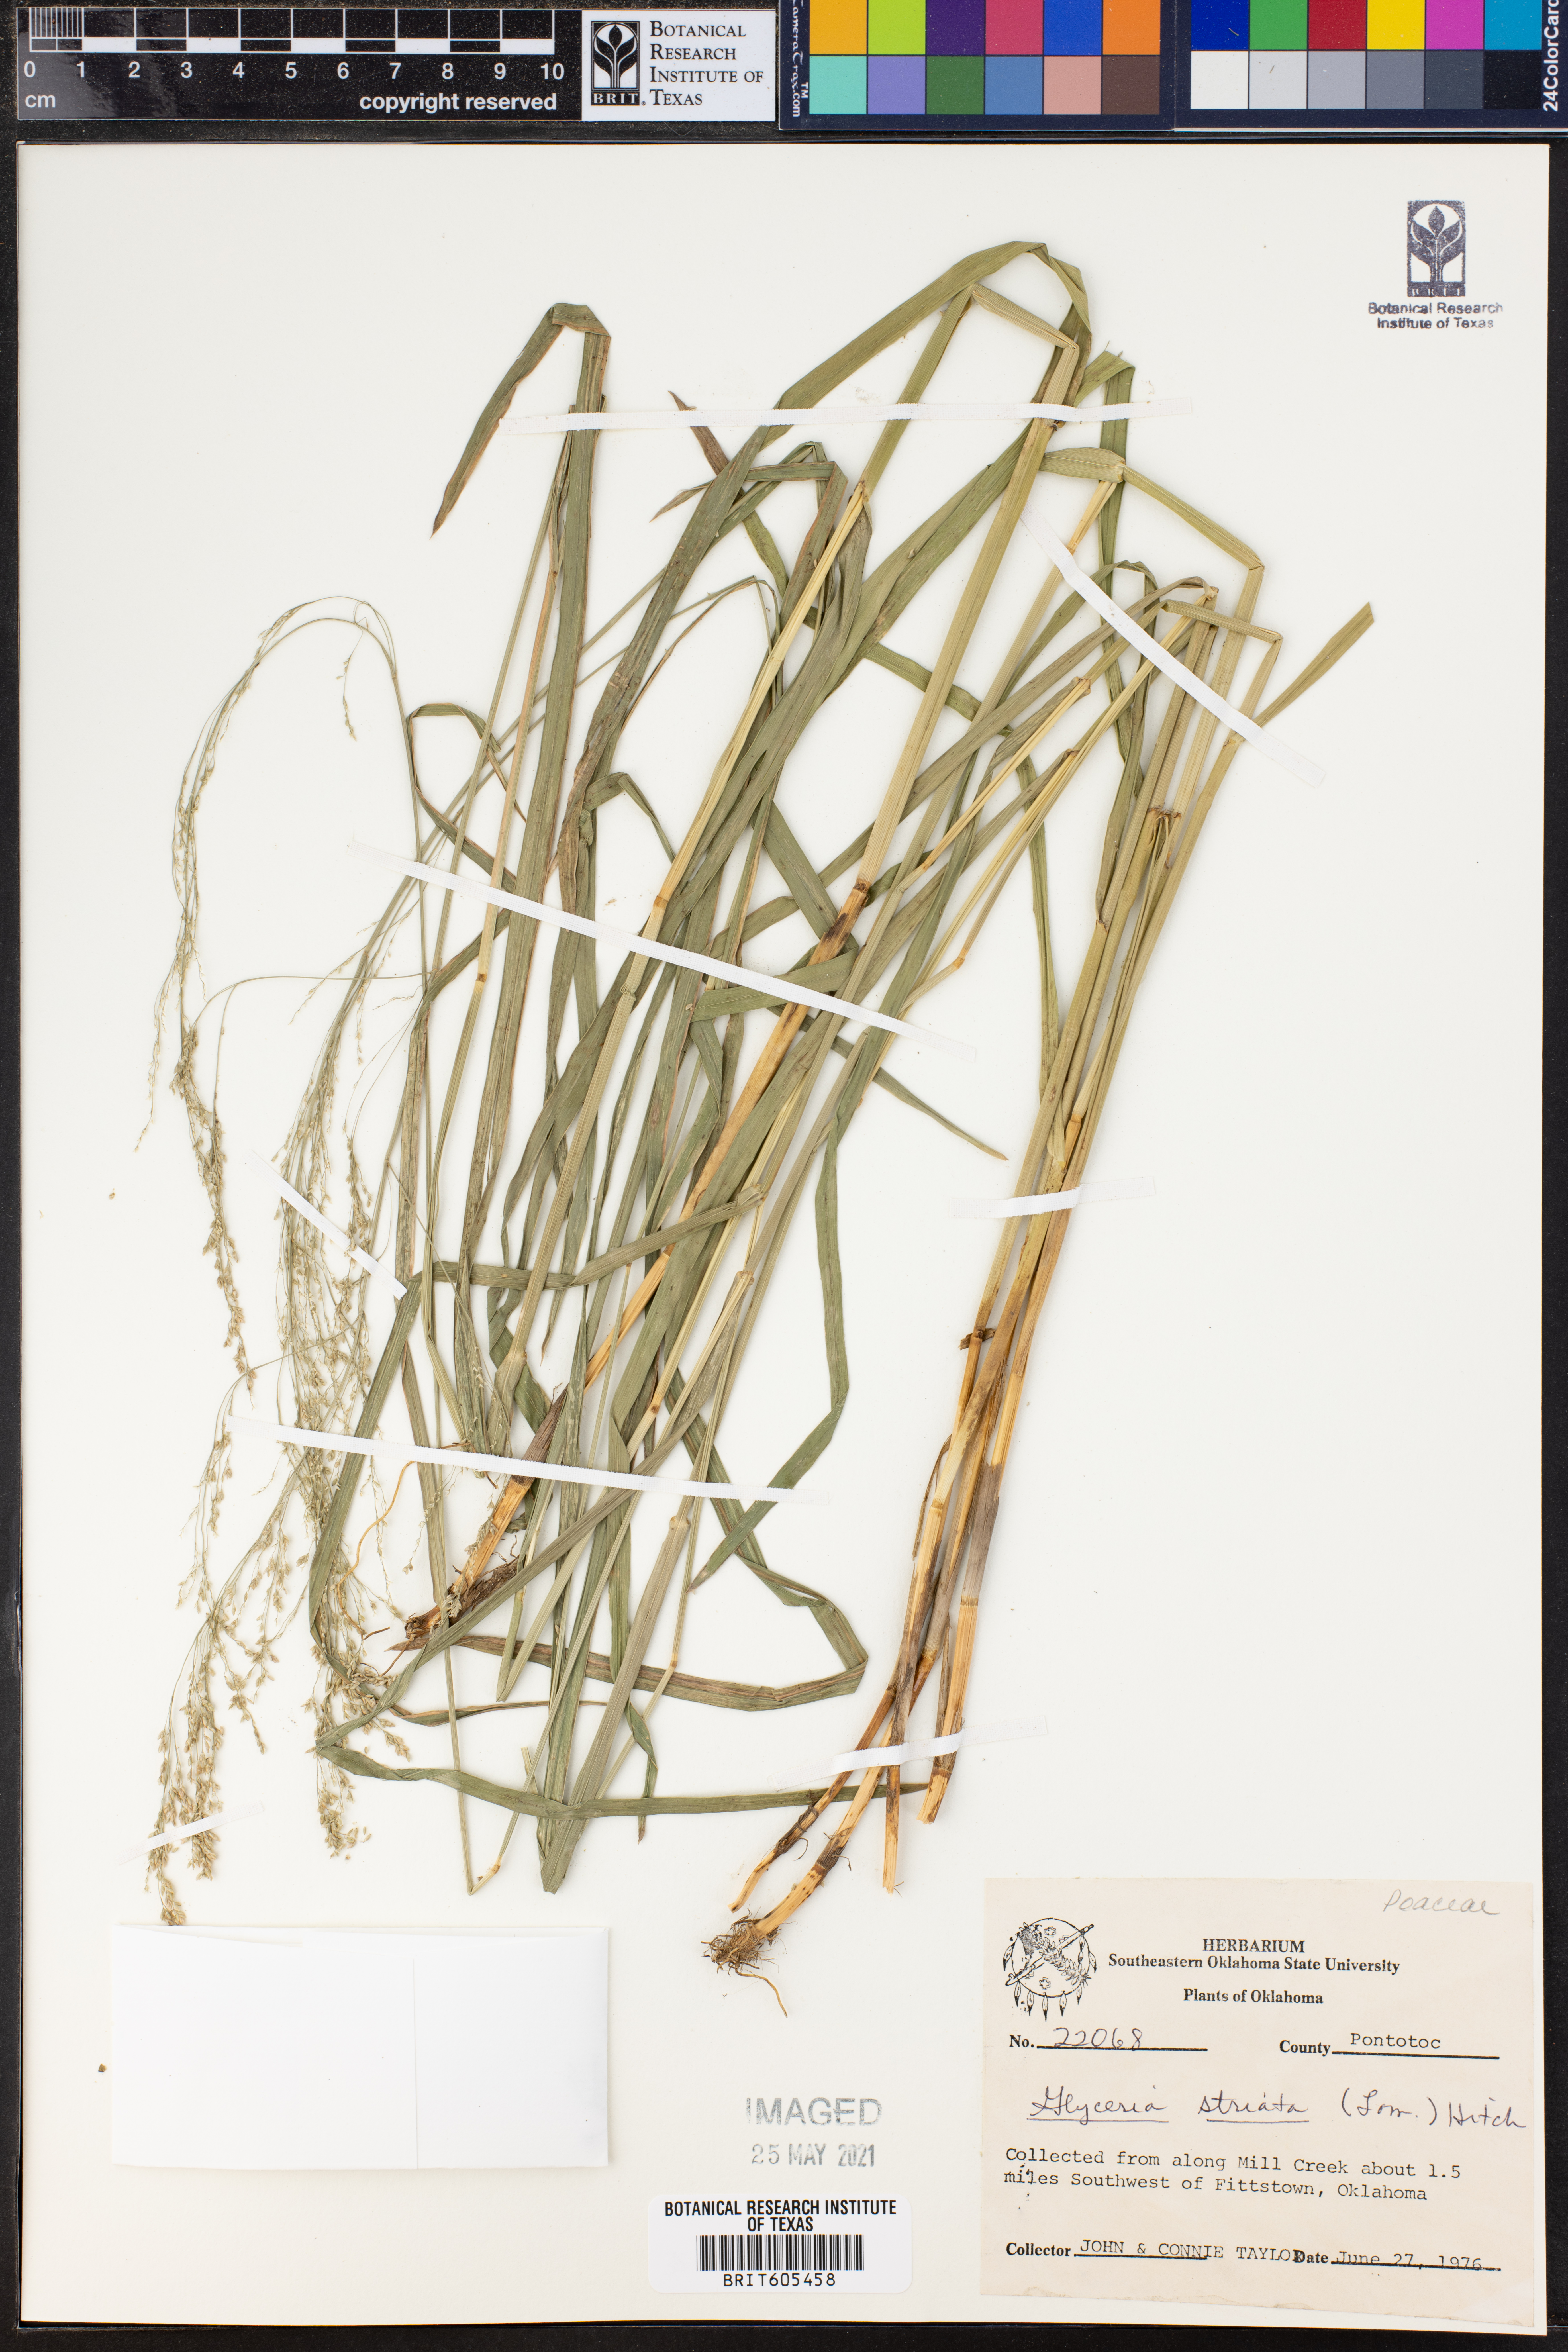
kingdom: Plantae
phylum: Tracheophyta
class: Liliopsida
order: Poales
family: Poaceae
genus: Glyceria
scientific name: Glyceria striata
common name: Fowl manna grass
